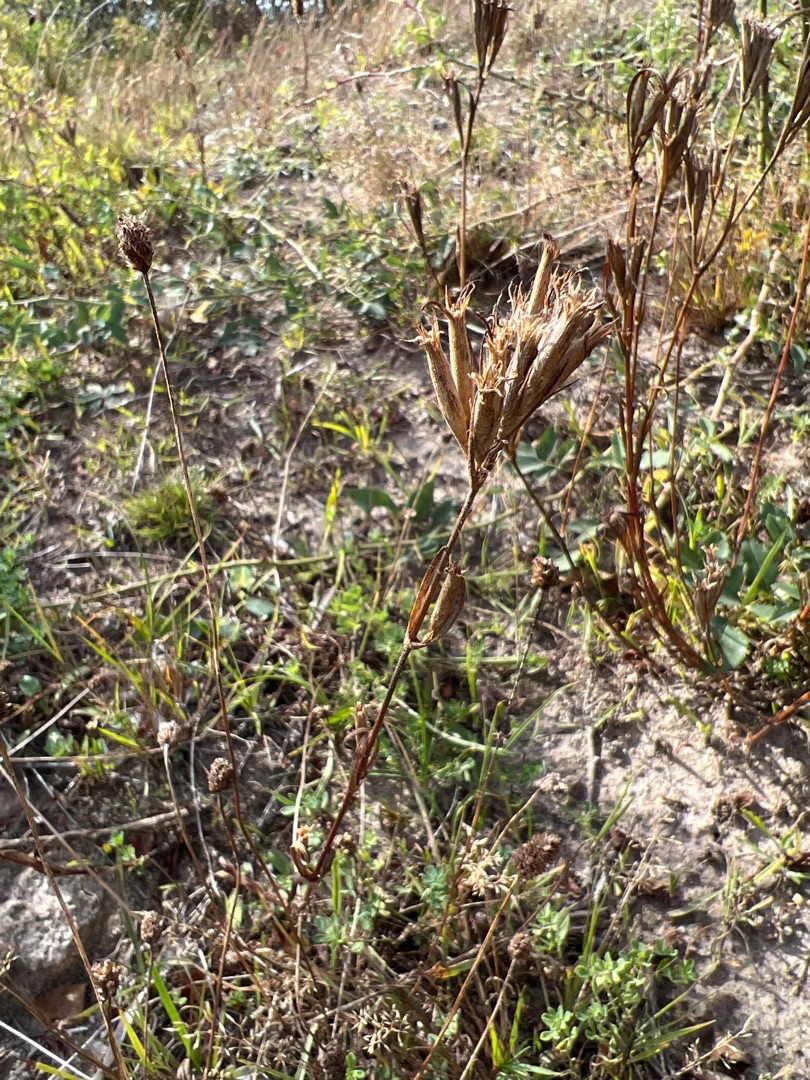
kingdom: Plantae
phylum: Tracheophyta
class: Magnoliopsida
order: Caryophyllales
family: Caryophyllaceae
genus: Dianthus
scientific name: Dianthus armeria
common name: Kost-nellike
